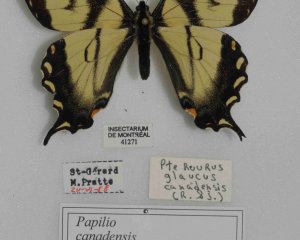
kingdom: Animalia
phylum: Arthropoda
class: Insecta
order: Lepidoptera
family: Papilionidae
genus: Pterourus
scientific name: Pterourus canadensis
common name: Canadian Tiger Swallowtail
